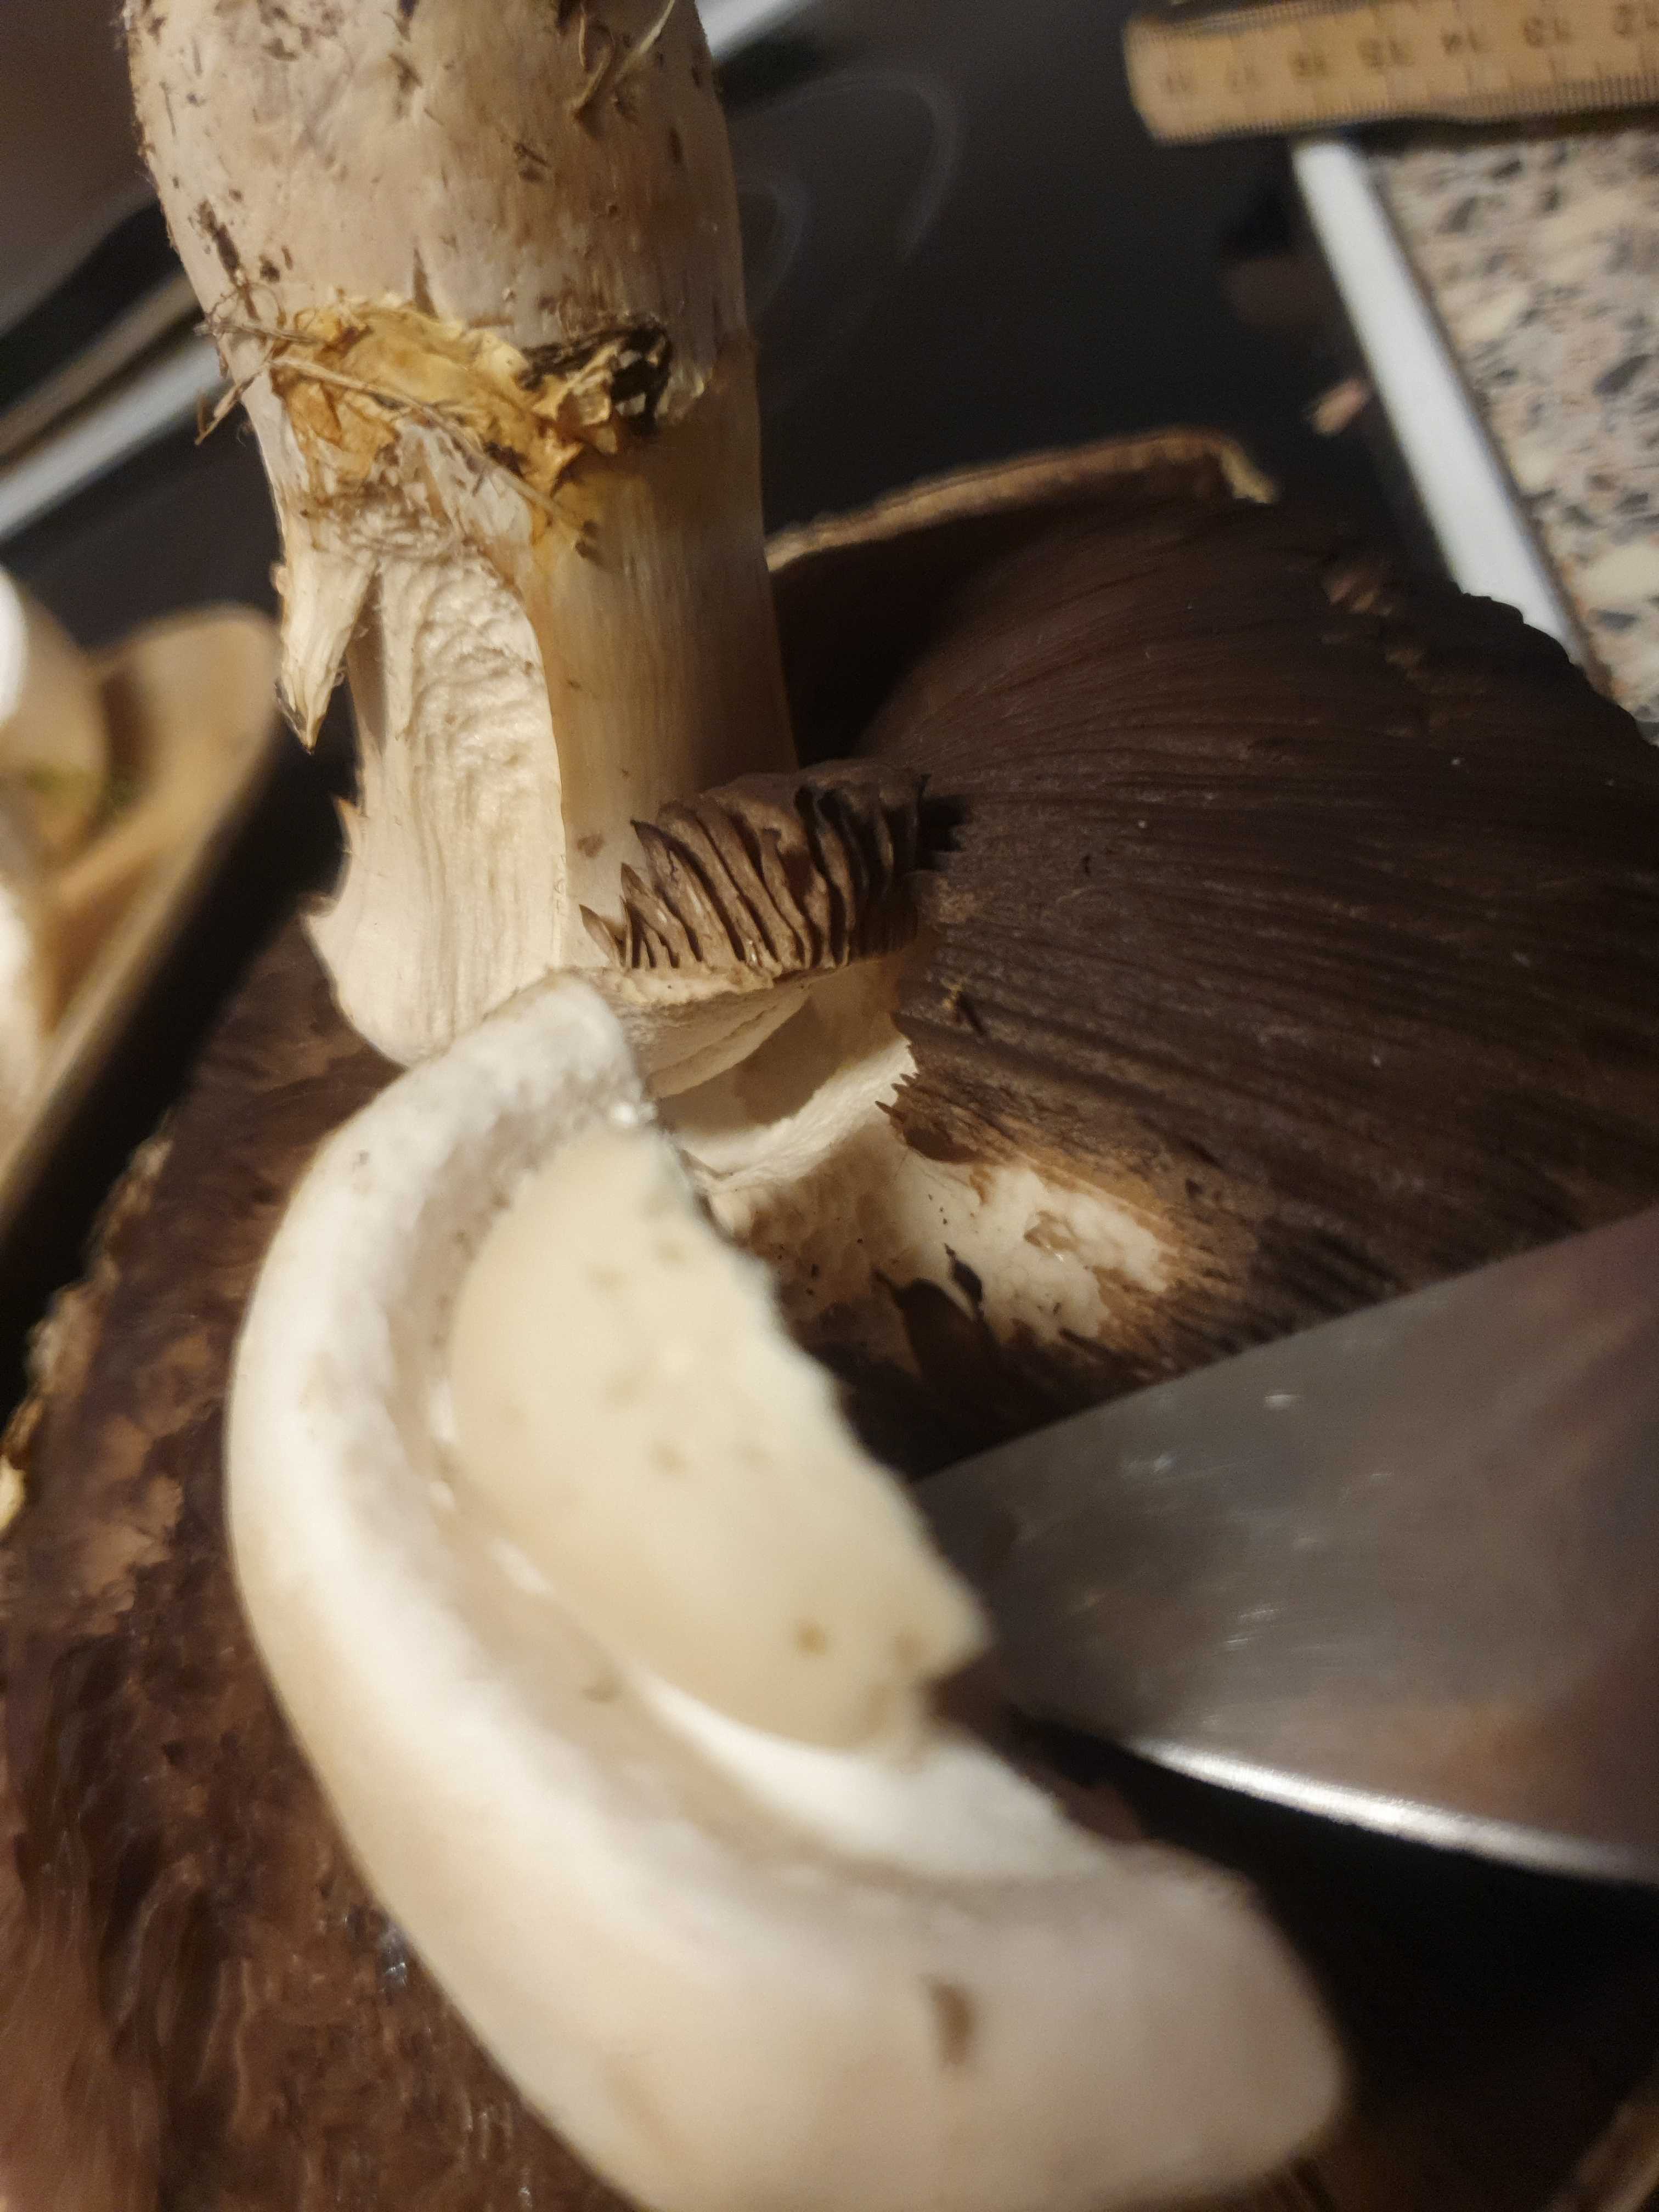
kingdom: Fungi
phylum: Basidiomycota
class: Agaricomycetes
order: Agaricales
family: Agaricaceae
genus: Agaricus
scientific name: Agaricus
